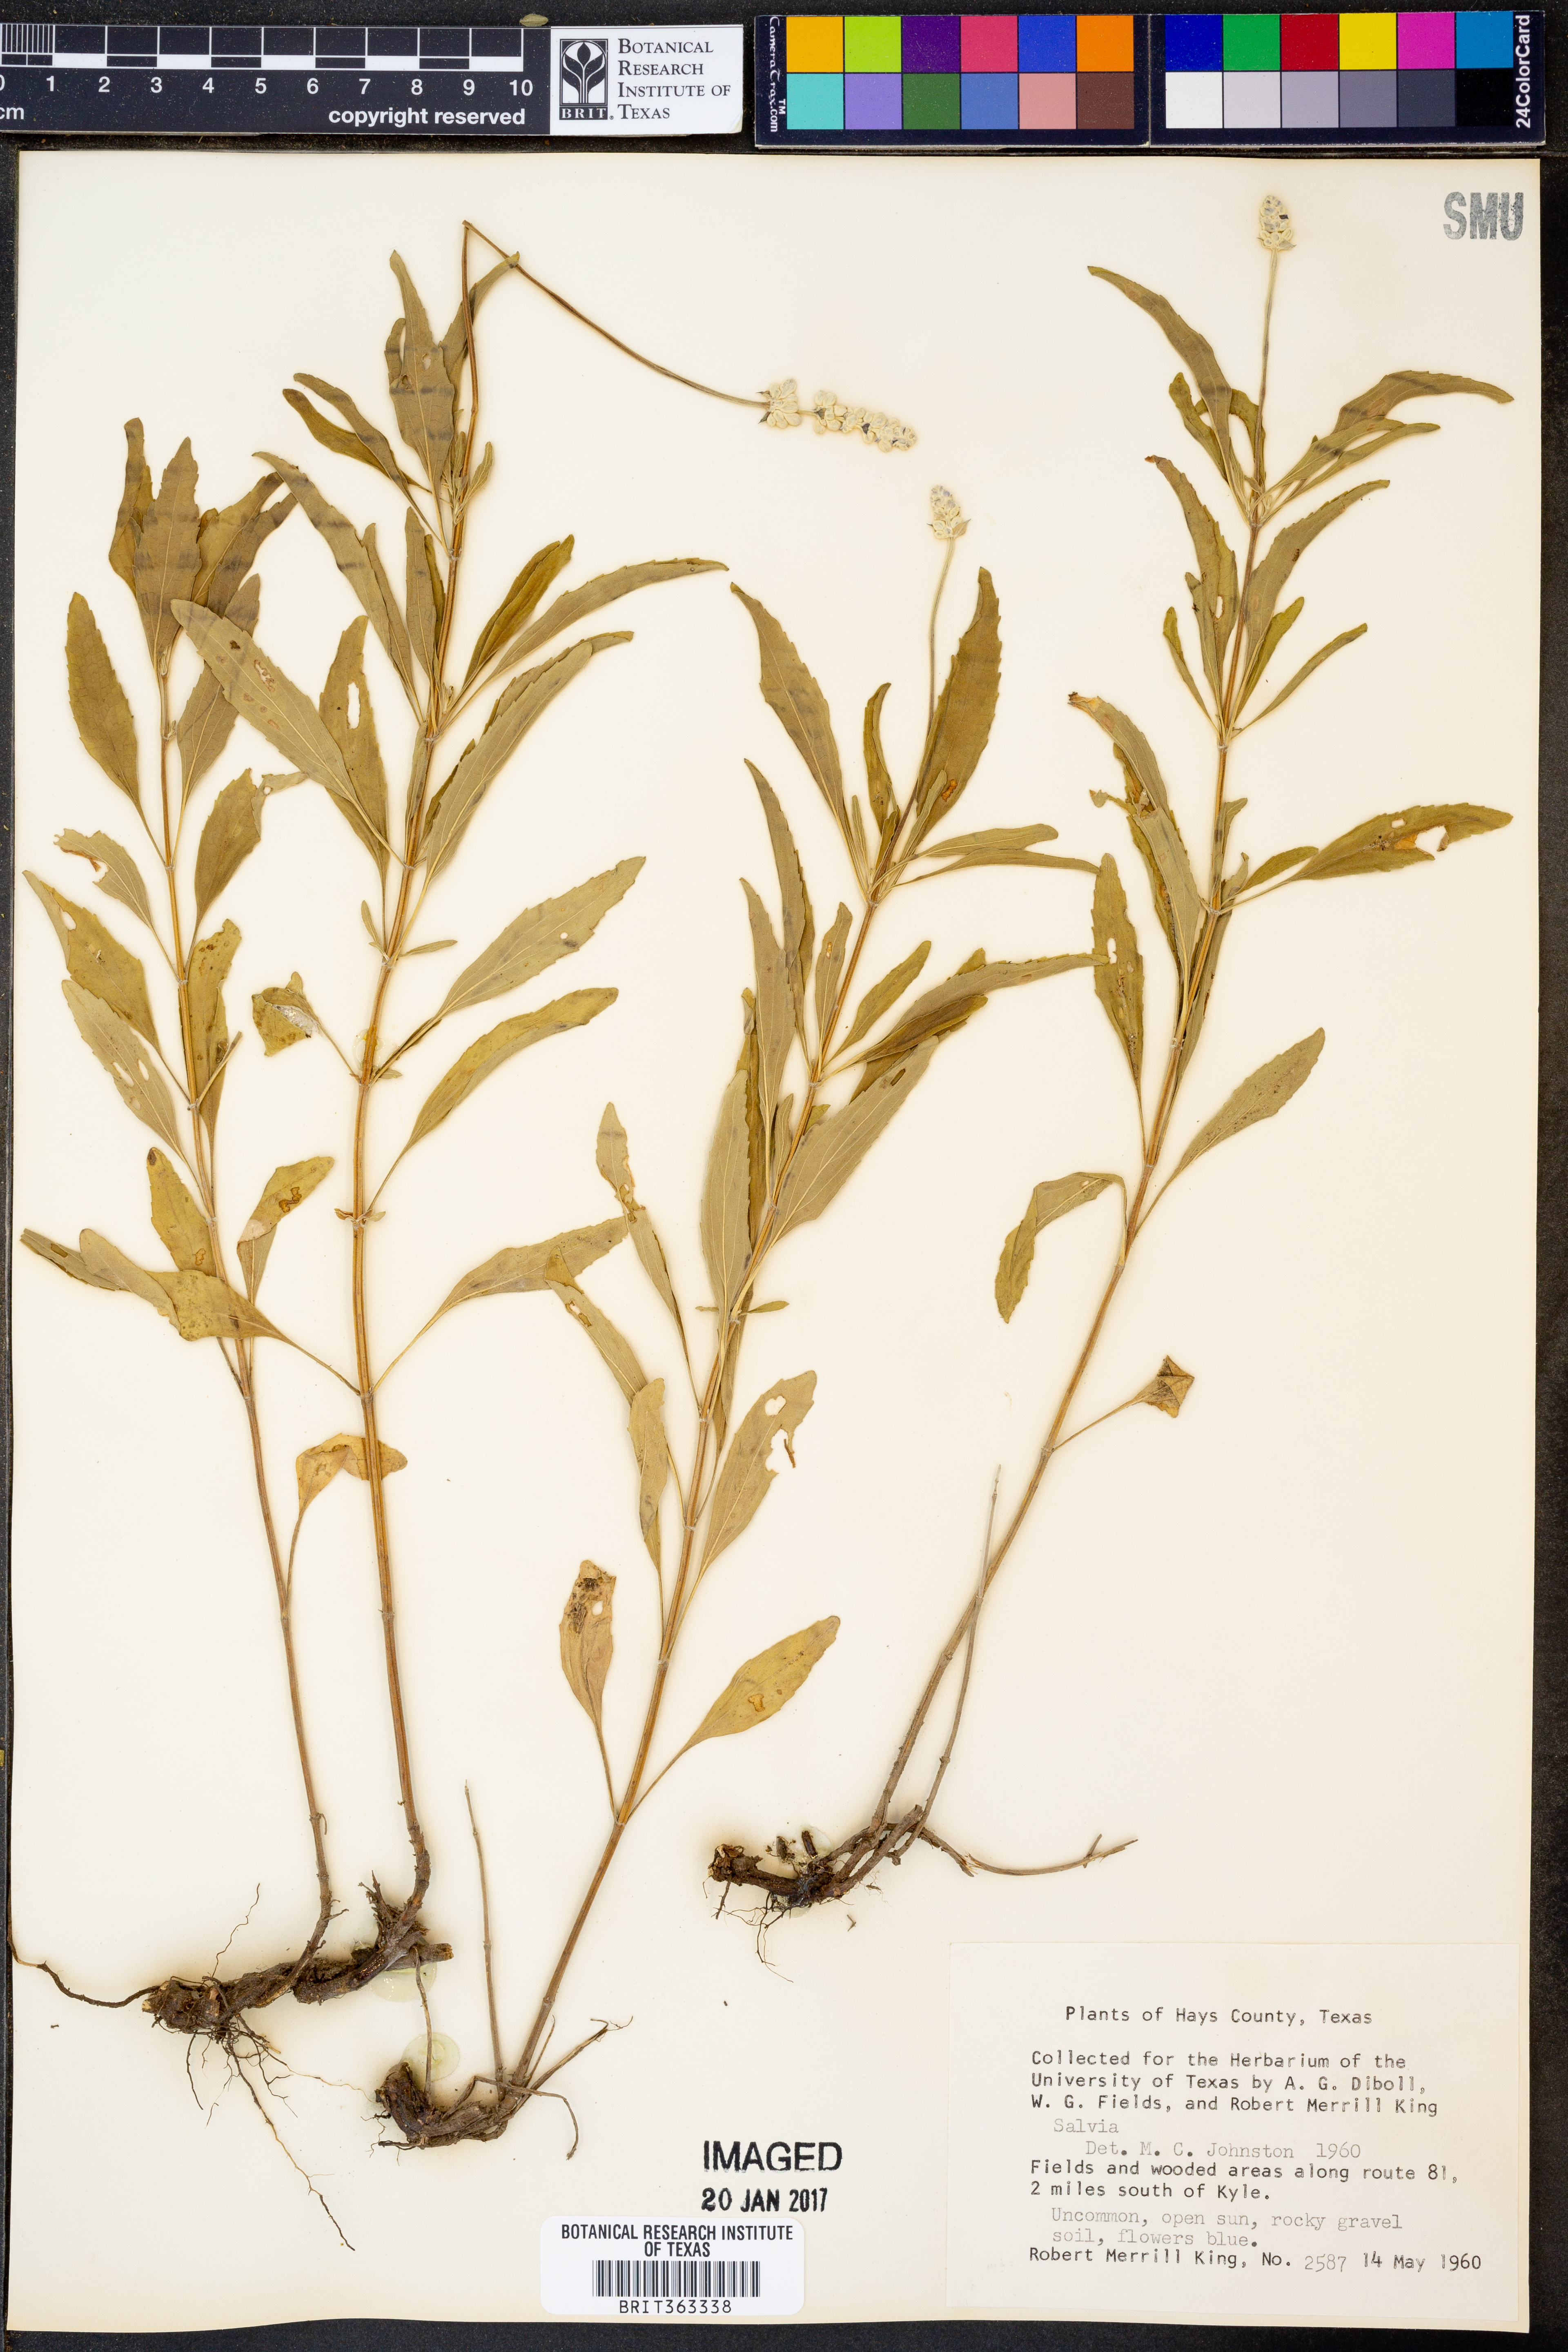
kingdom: Plantae
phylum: Tracheophyta
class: Magnoliopsida
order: Lamiales
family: Lamiaceae
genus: Salvia
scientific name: Salvia farinacea
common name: Mealy sage
